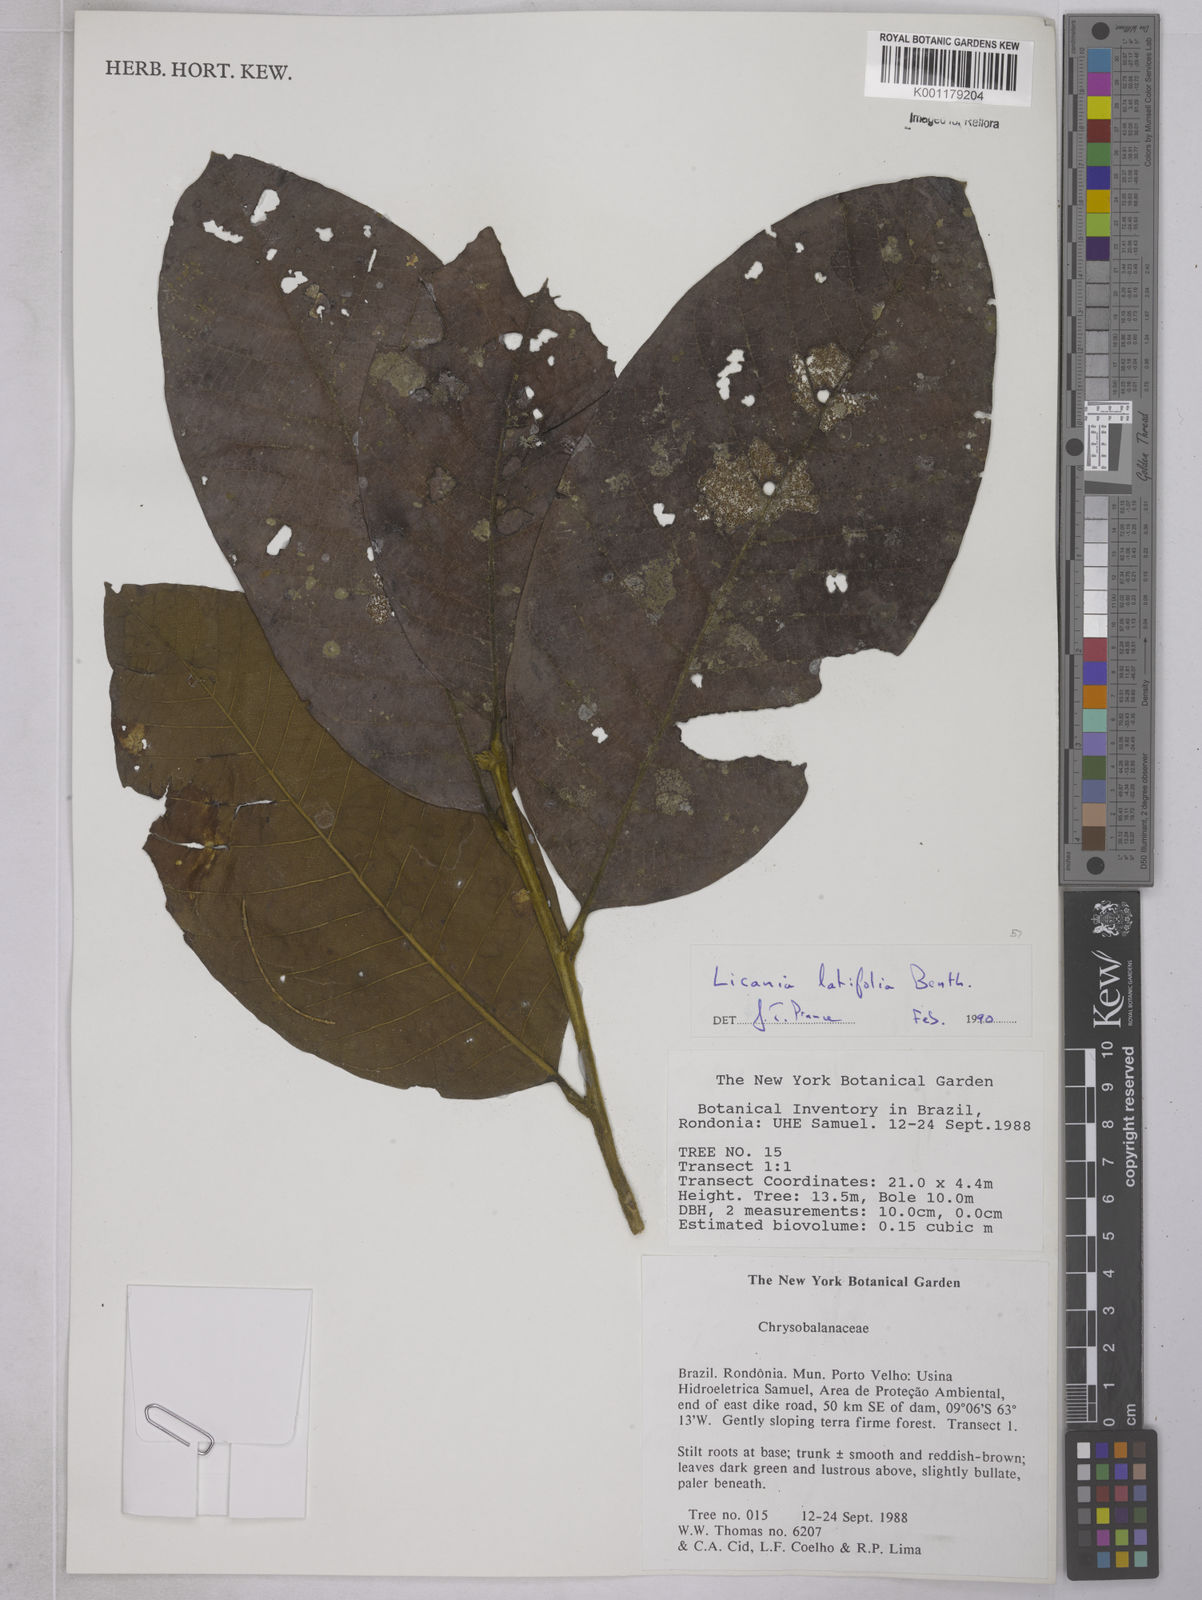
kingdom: Plantae
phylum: Tracheophyta
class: Magnoliopsida
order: Malpighiales
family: Chrysobalanaceae
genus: Hymenopus
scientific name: Hymenopus latifolius
